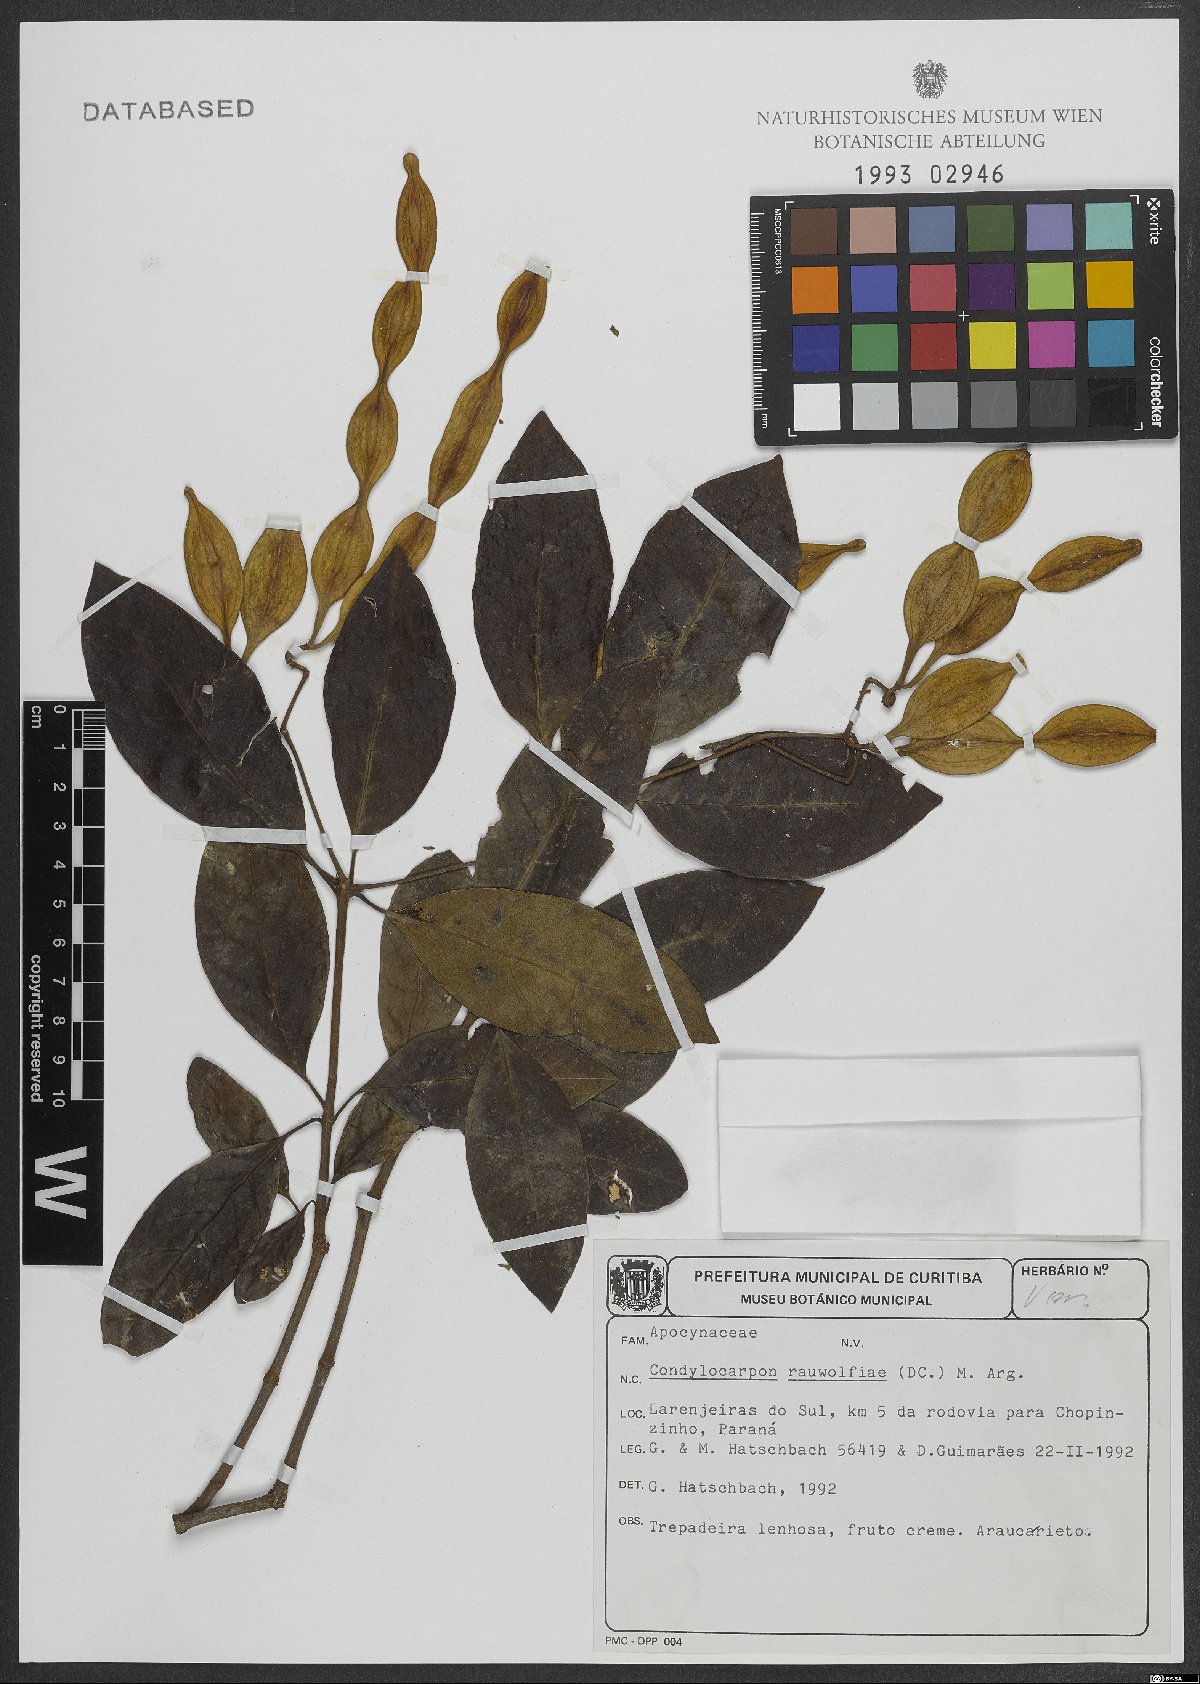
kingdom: Plantae
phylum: Tracheophyta
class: Magnoliopsida
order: Gentianales
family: Apocynaceae
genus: Condylocarpon
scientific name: Condylocarpon isthmicum
